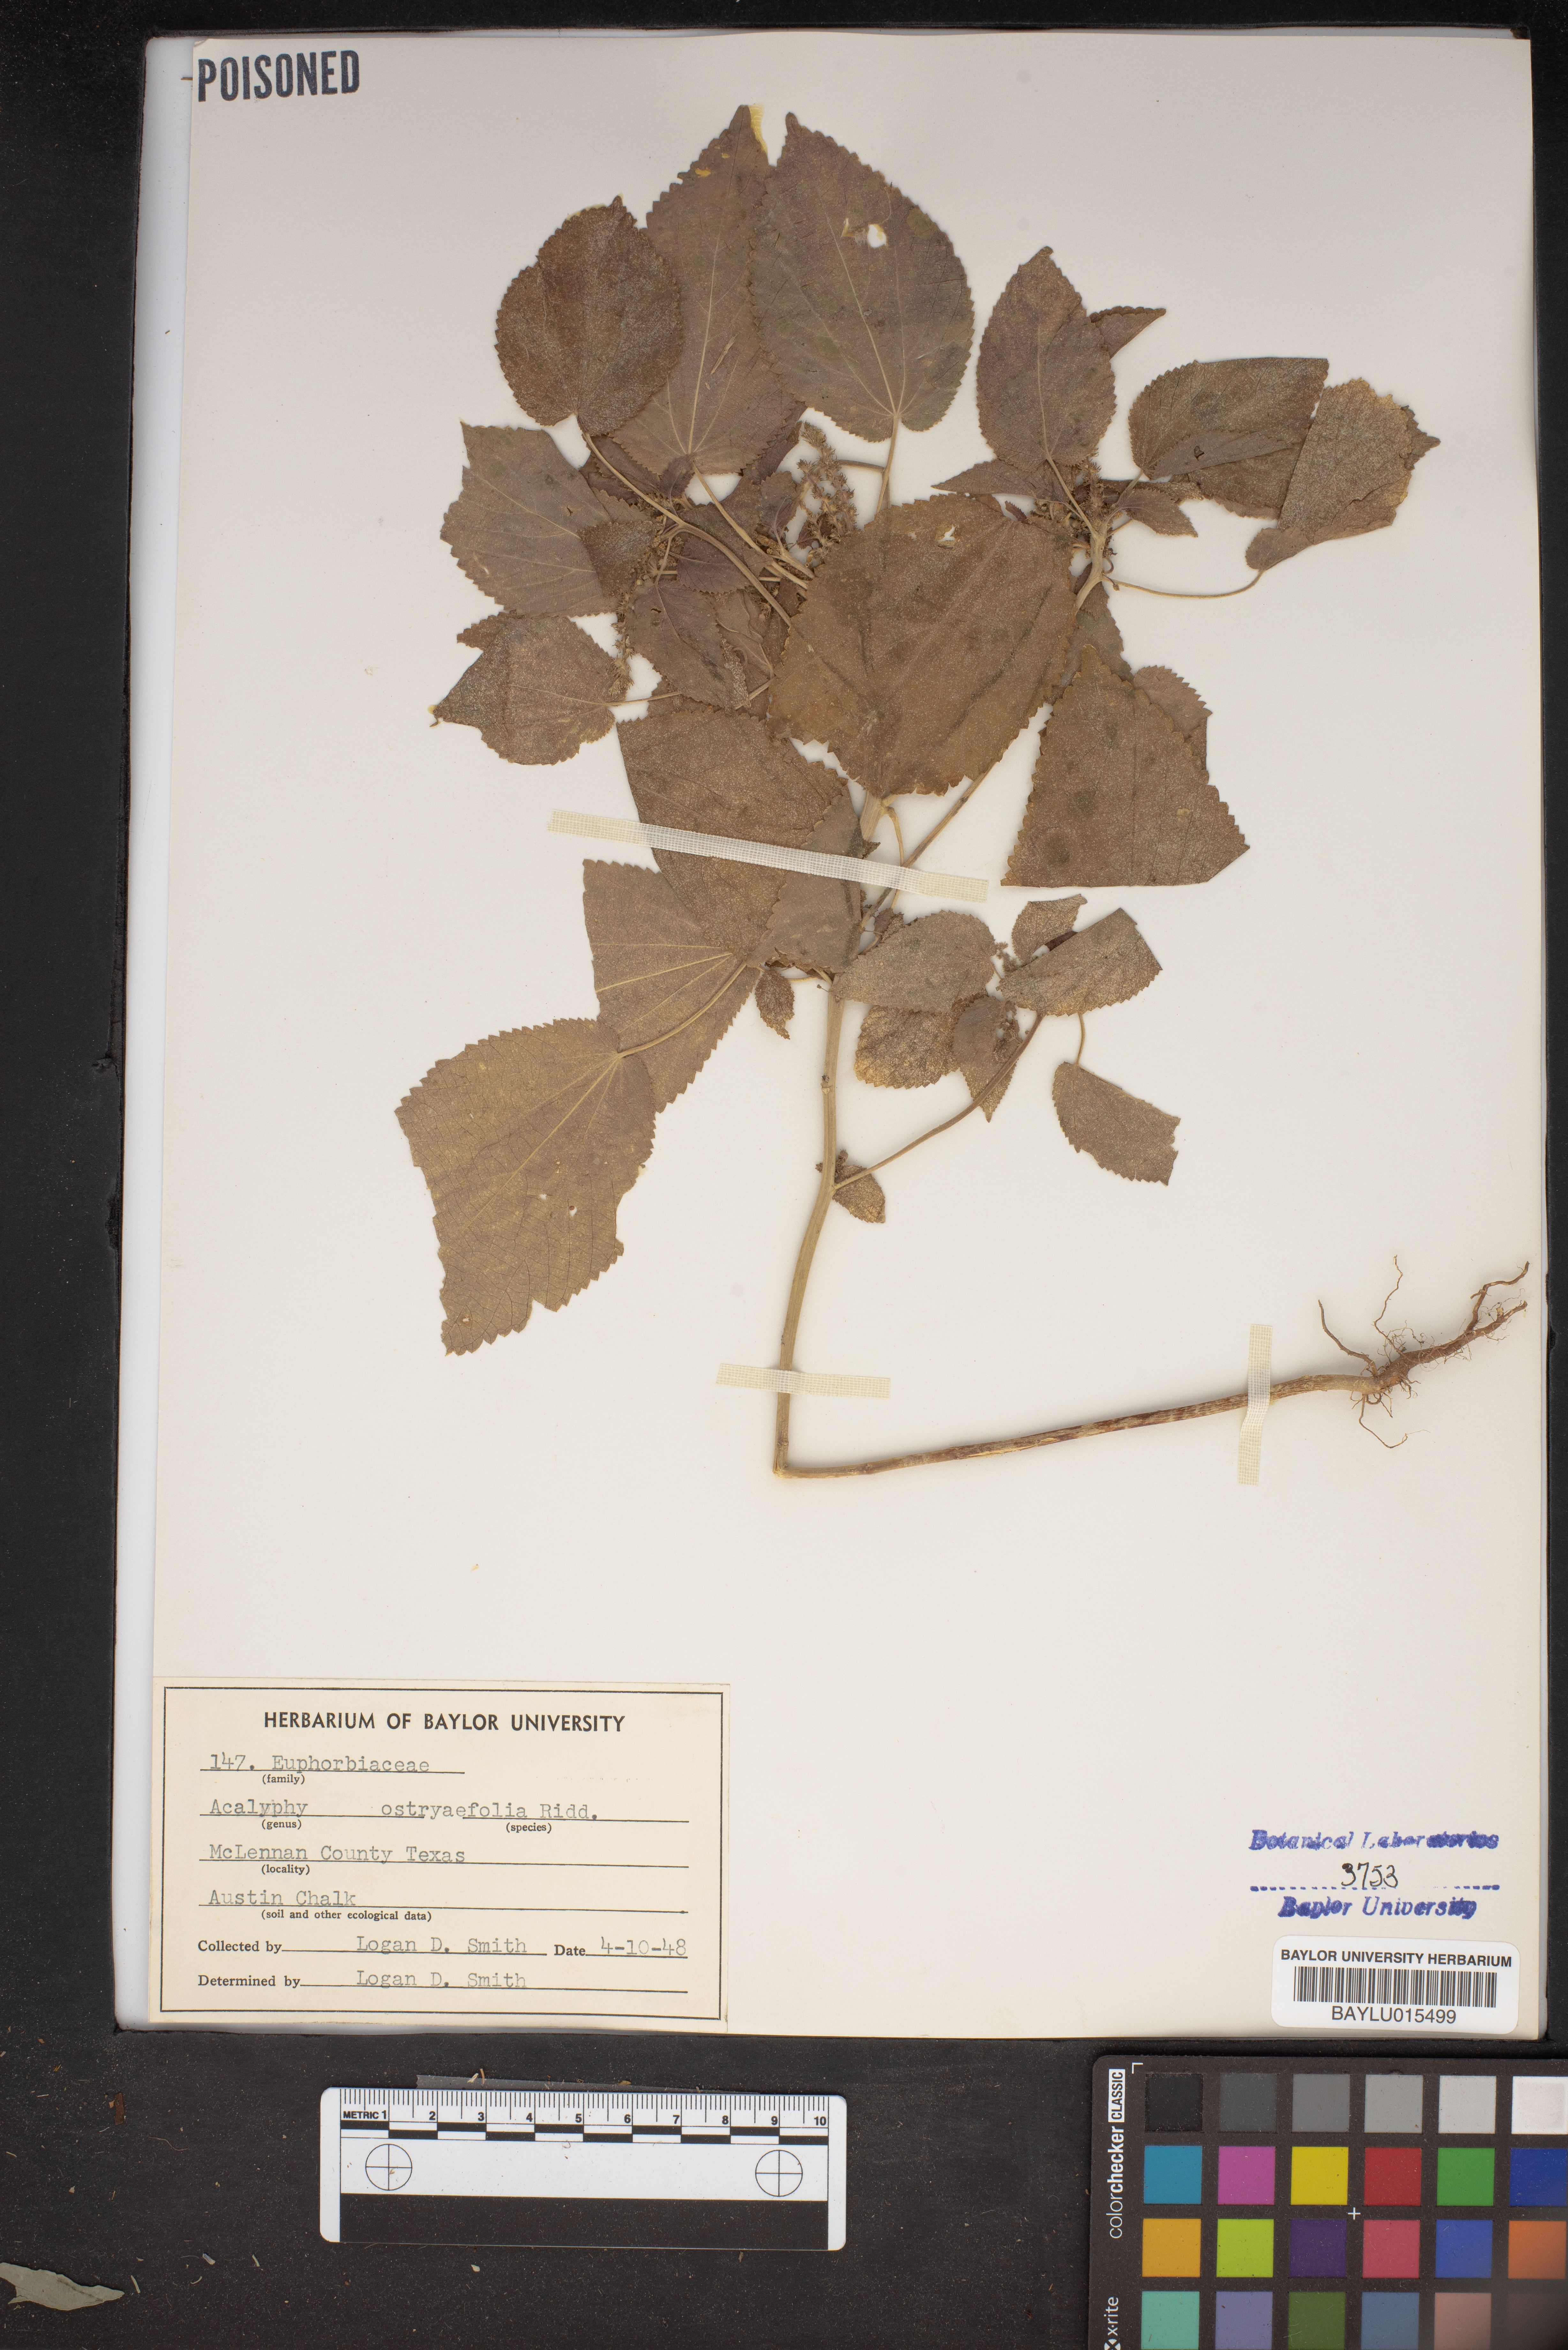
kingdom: Plantae
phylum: Tracheophyta
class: Magnoliopsida
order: Malpighiales
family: Euphorbiaceae
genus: Acalypha
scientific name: Acalypha ostryifolia
